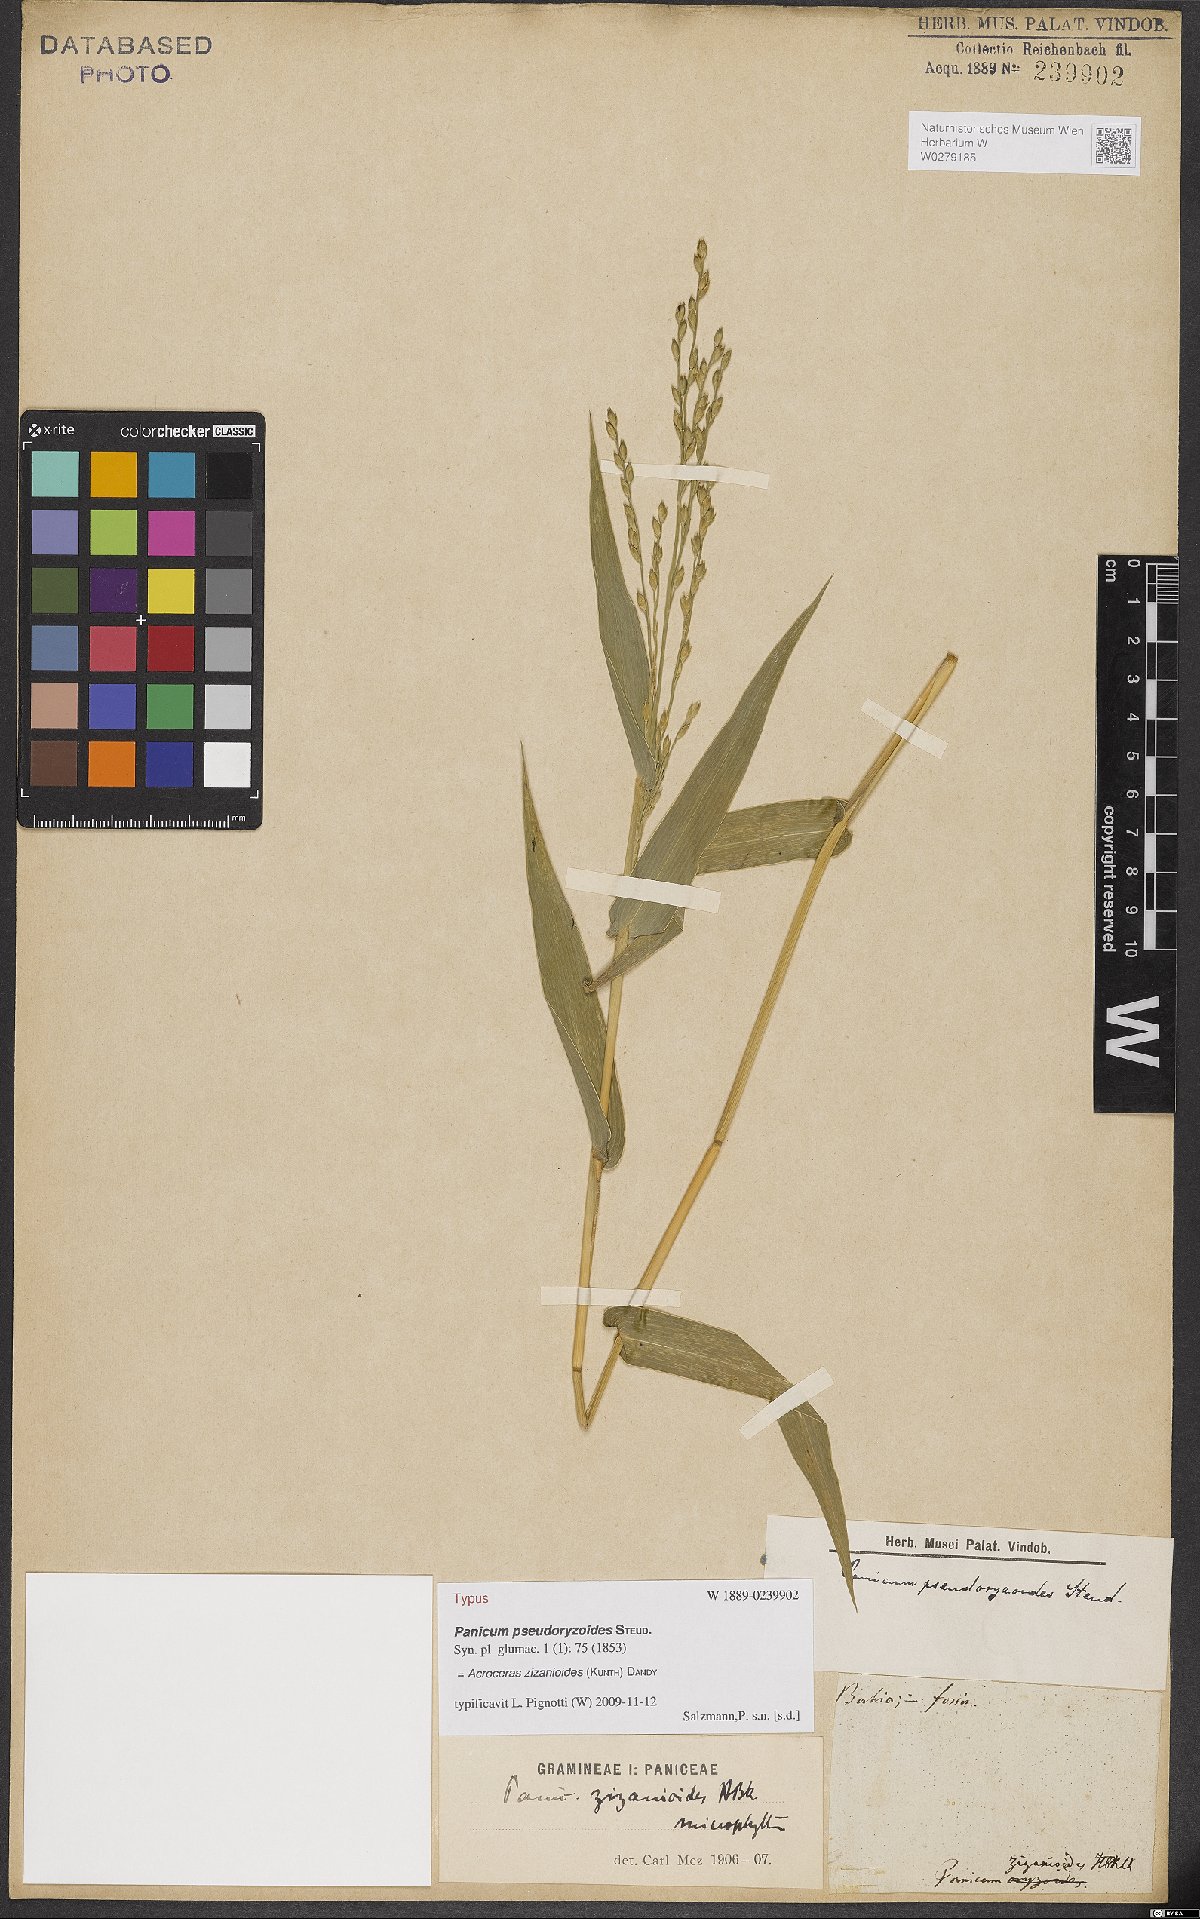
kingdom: Plantae
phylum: Tracheophyta
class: Liliopsida
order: Poales
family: Poaceae
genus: Acroceras
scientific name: Acroceras zizanioides
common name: Oat grass
